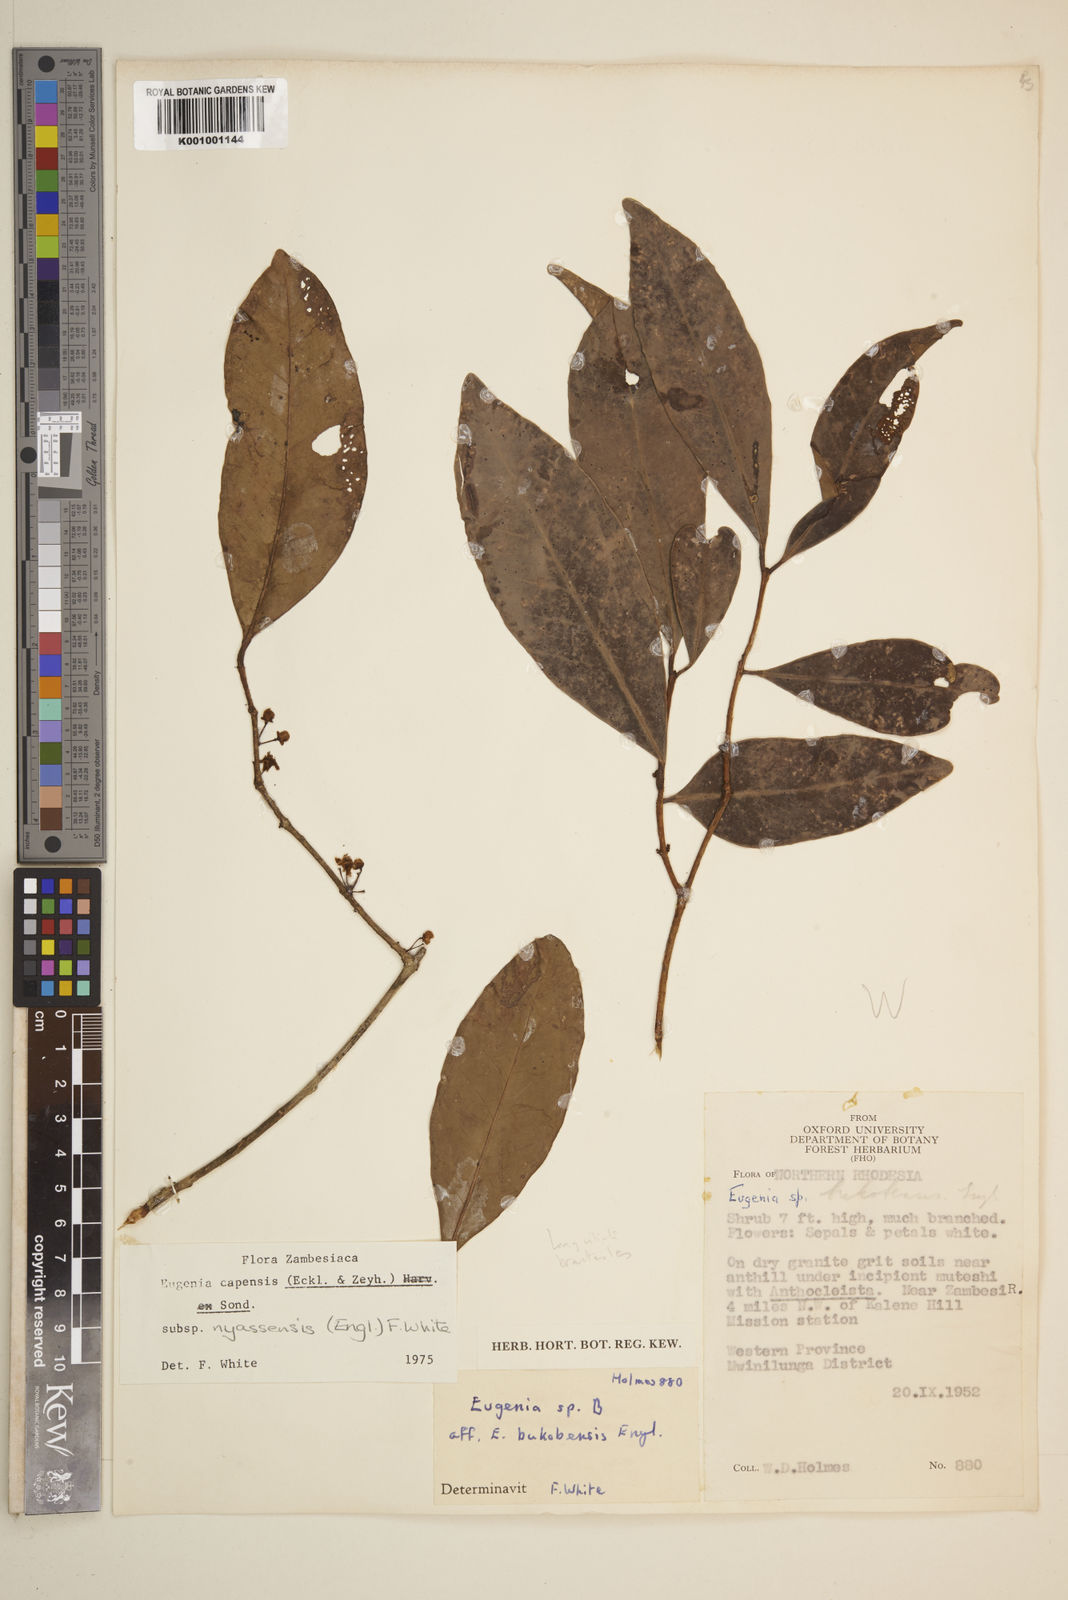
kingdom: Plantae
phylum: Tracheophyta
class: Magnoliopsida
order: Myrtales
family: Myrtaceae
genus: Eugenia
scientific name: Eugenia capensis
